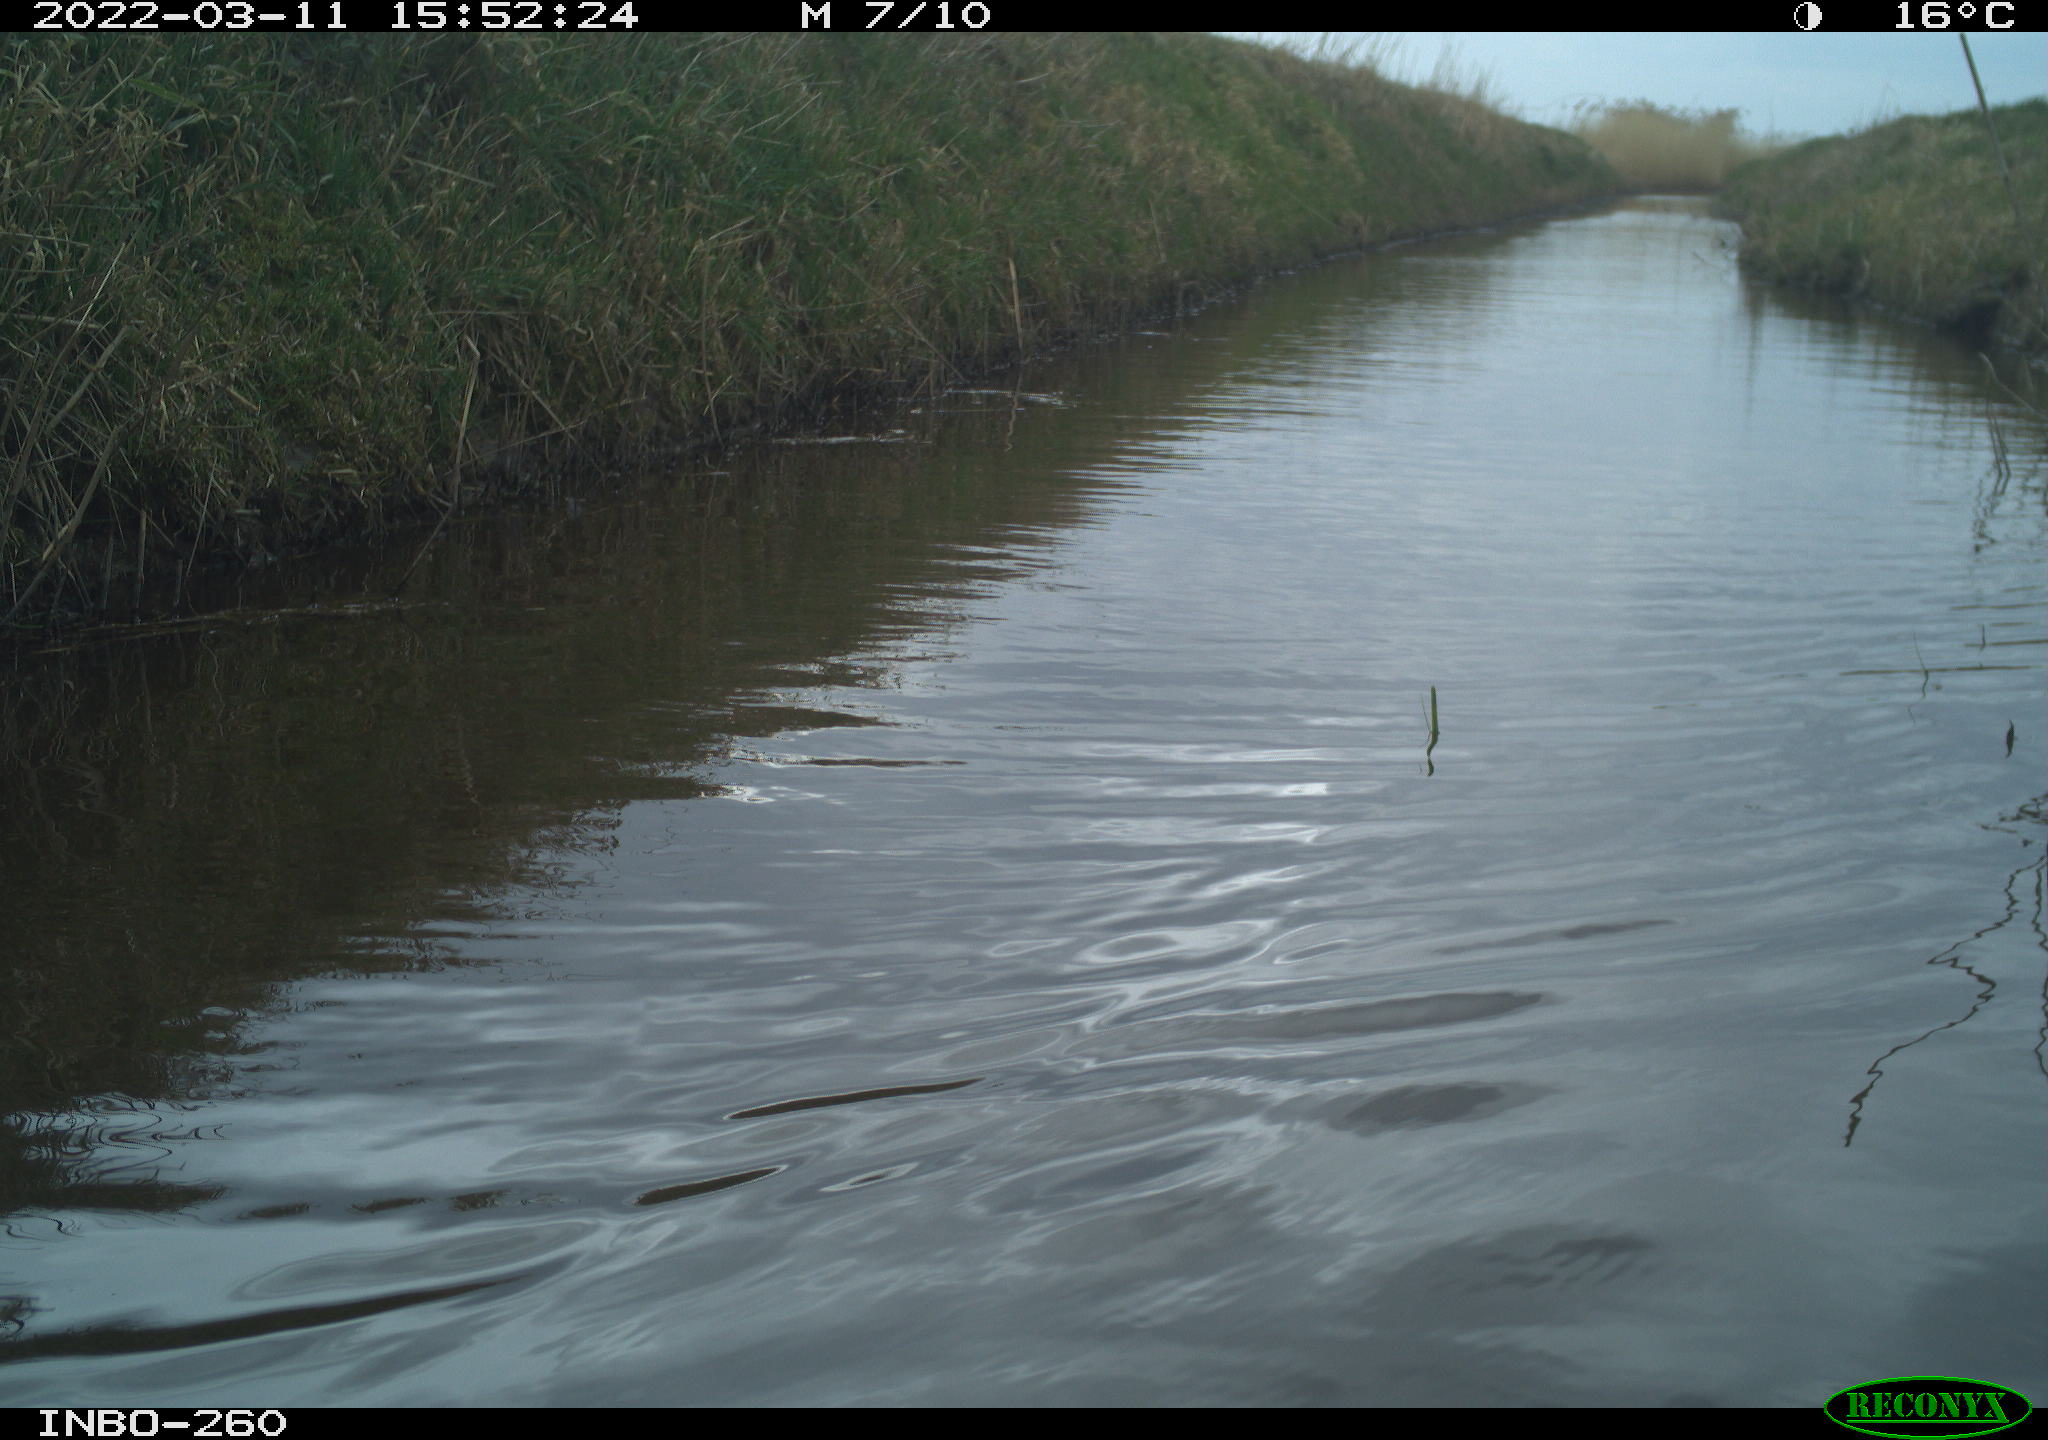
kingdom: Animalia
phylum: Chordata
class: Aves
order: Gruiformes
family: Rallidae
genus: Fulica
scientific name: Fulica atra
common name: Eurasian coot
